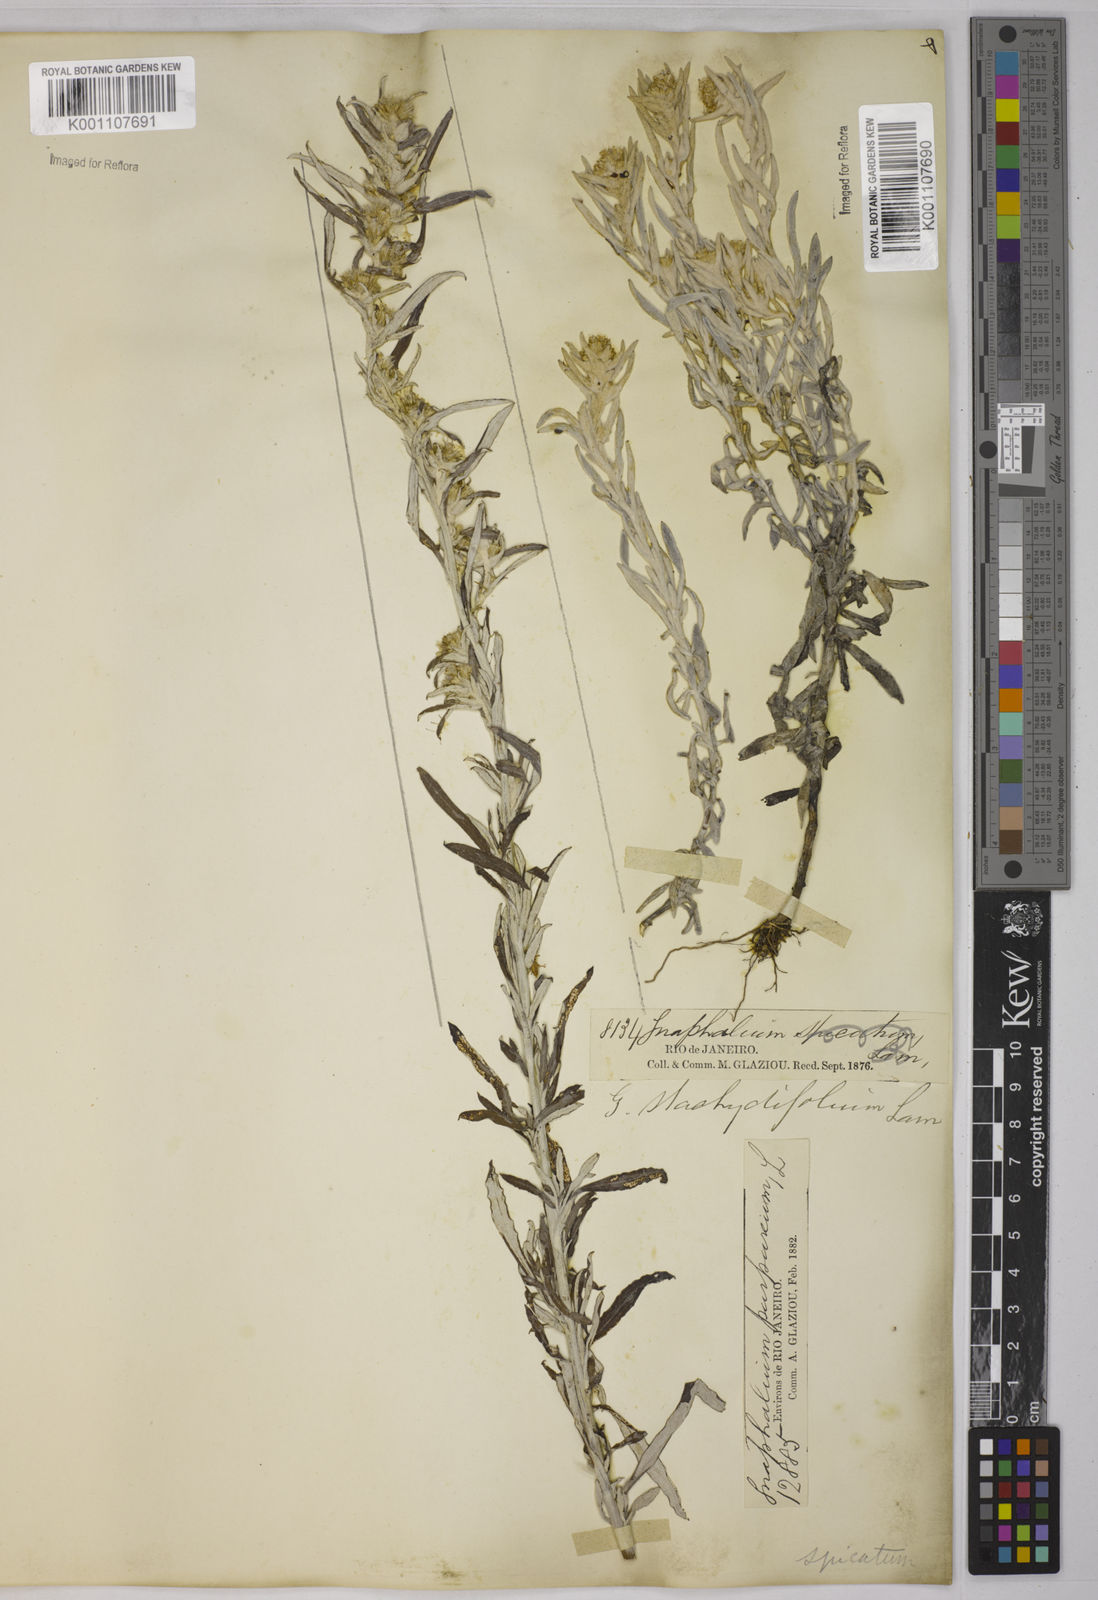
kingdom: Plantae
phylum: Tracheophyta
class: Magnoliopsida
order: Asterales
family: Asteraceae
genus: Gamochaeta
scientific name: Gamochaeta purpurea
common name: Purple cudweed
